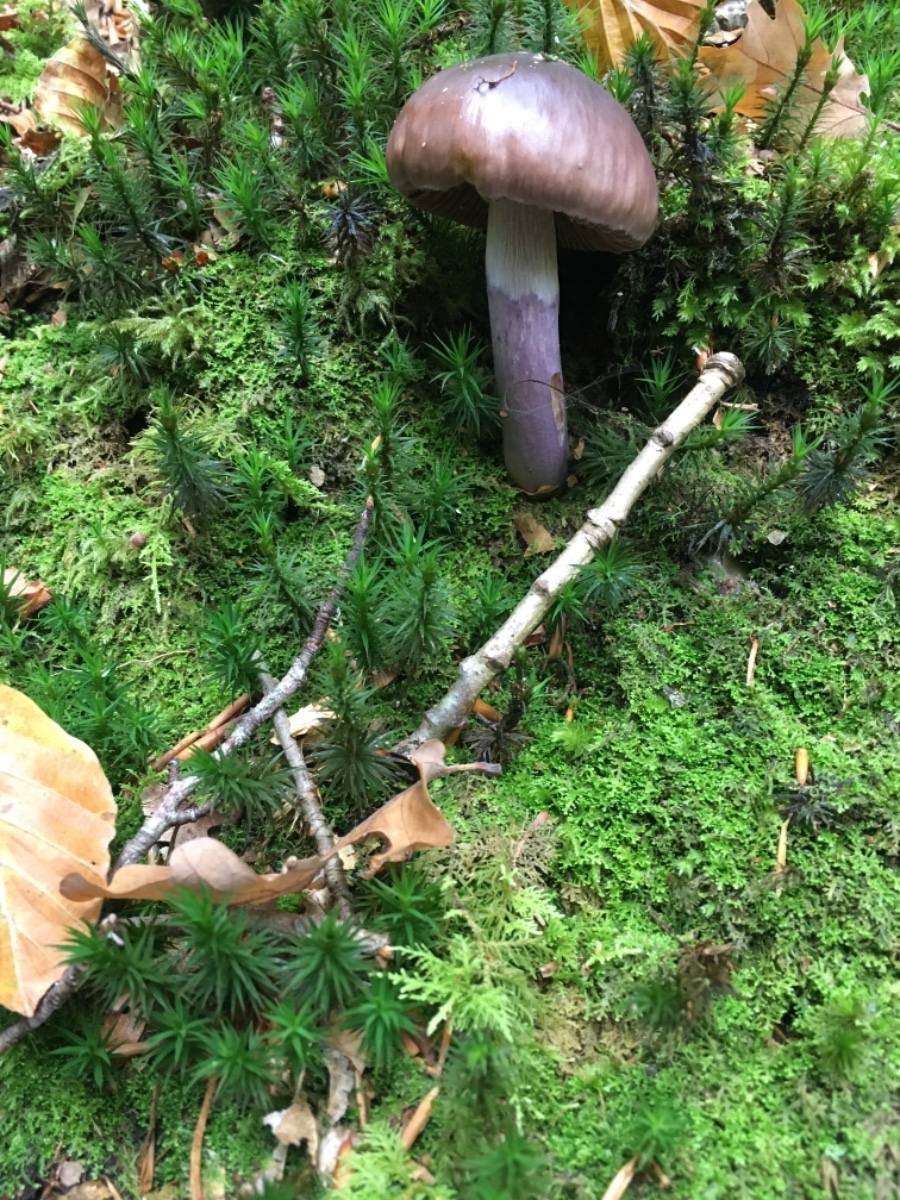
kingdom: Fungi
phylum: Basidiomycota
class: Agaricomycetes
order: Agaricales
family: Cortinariaceae
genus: Cortinarius
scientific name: Cortinarius elatior
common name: høj slørhat
